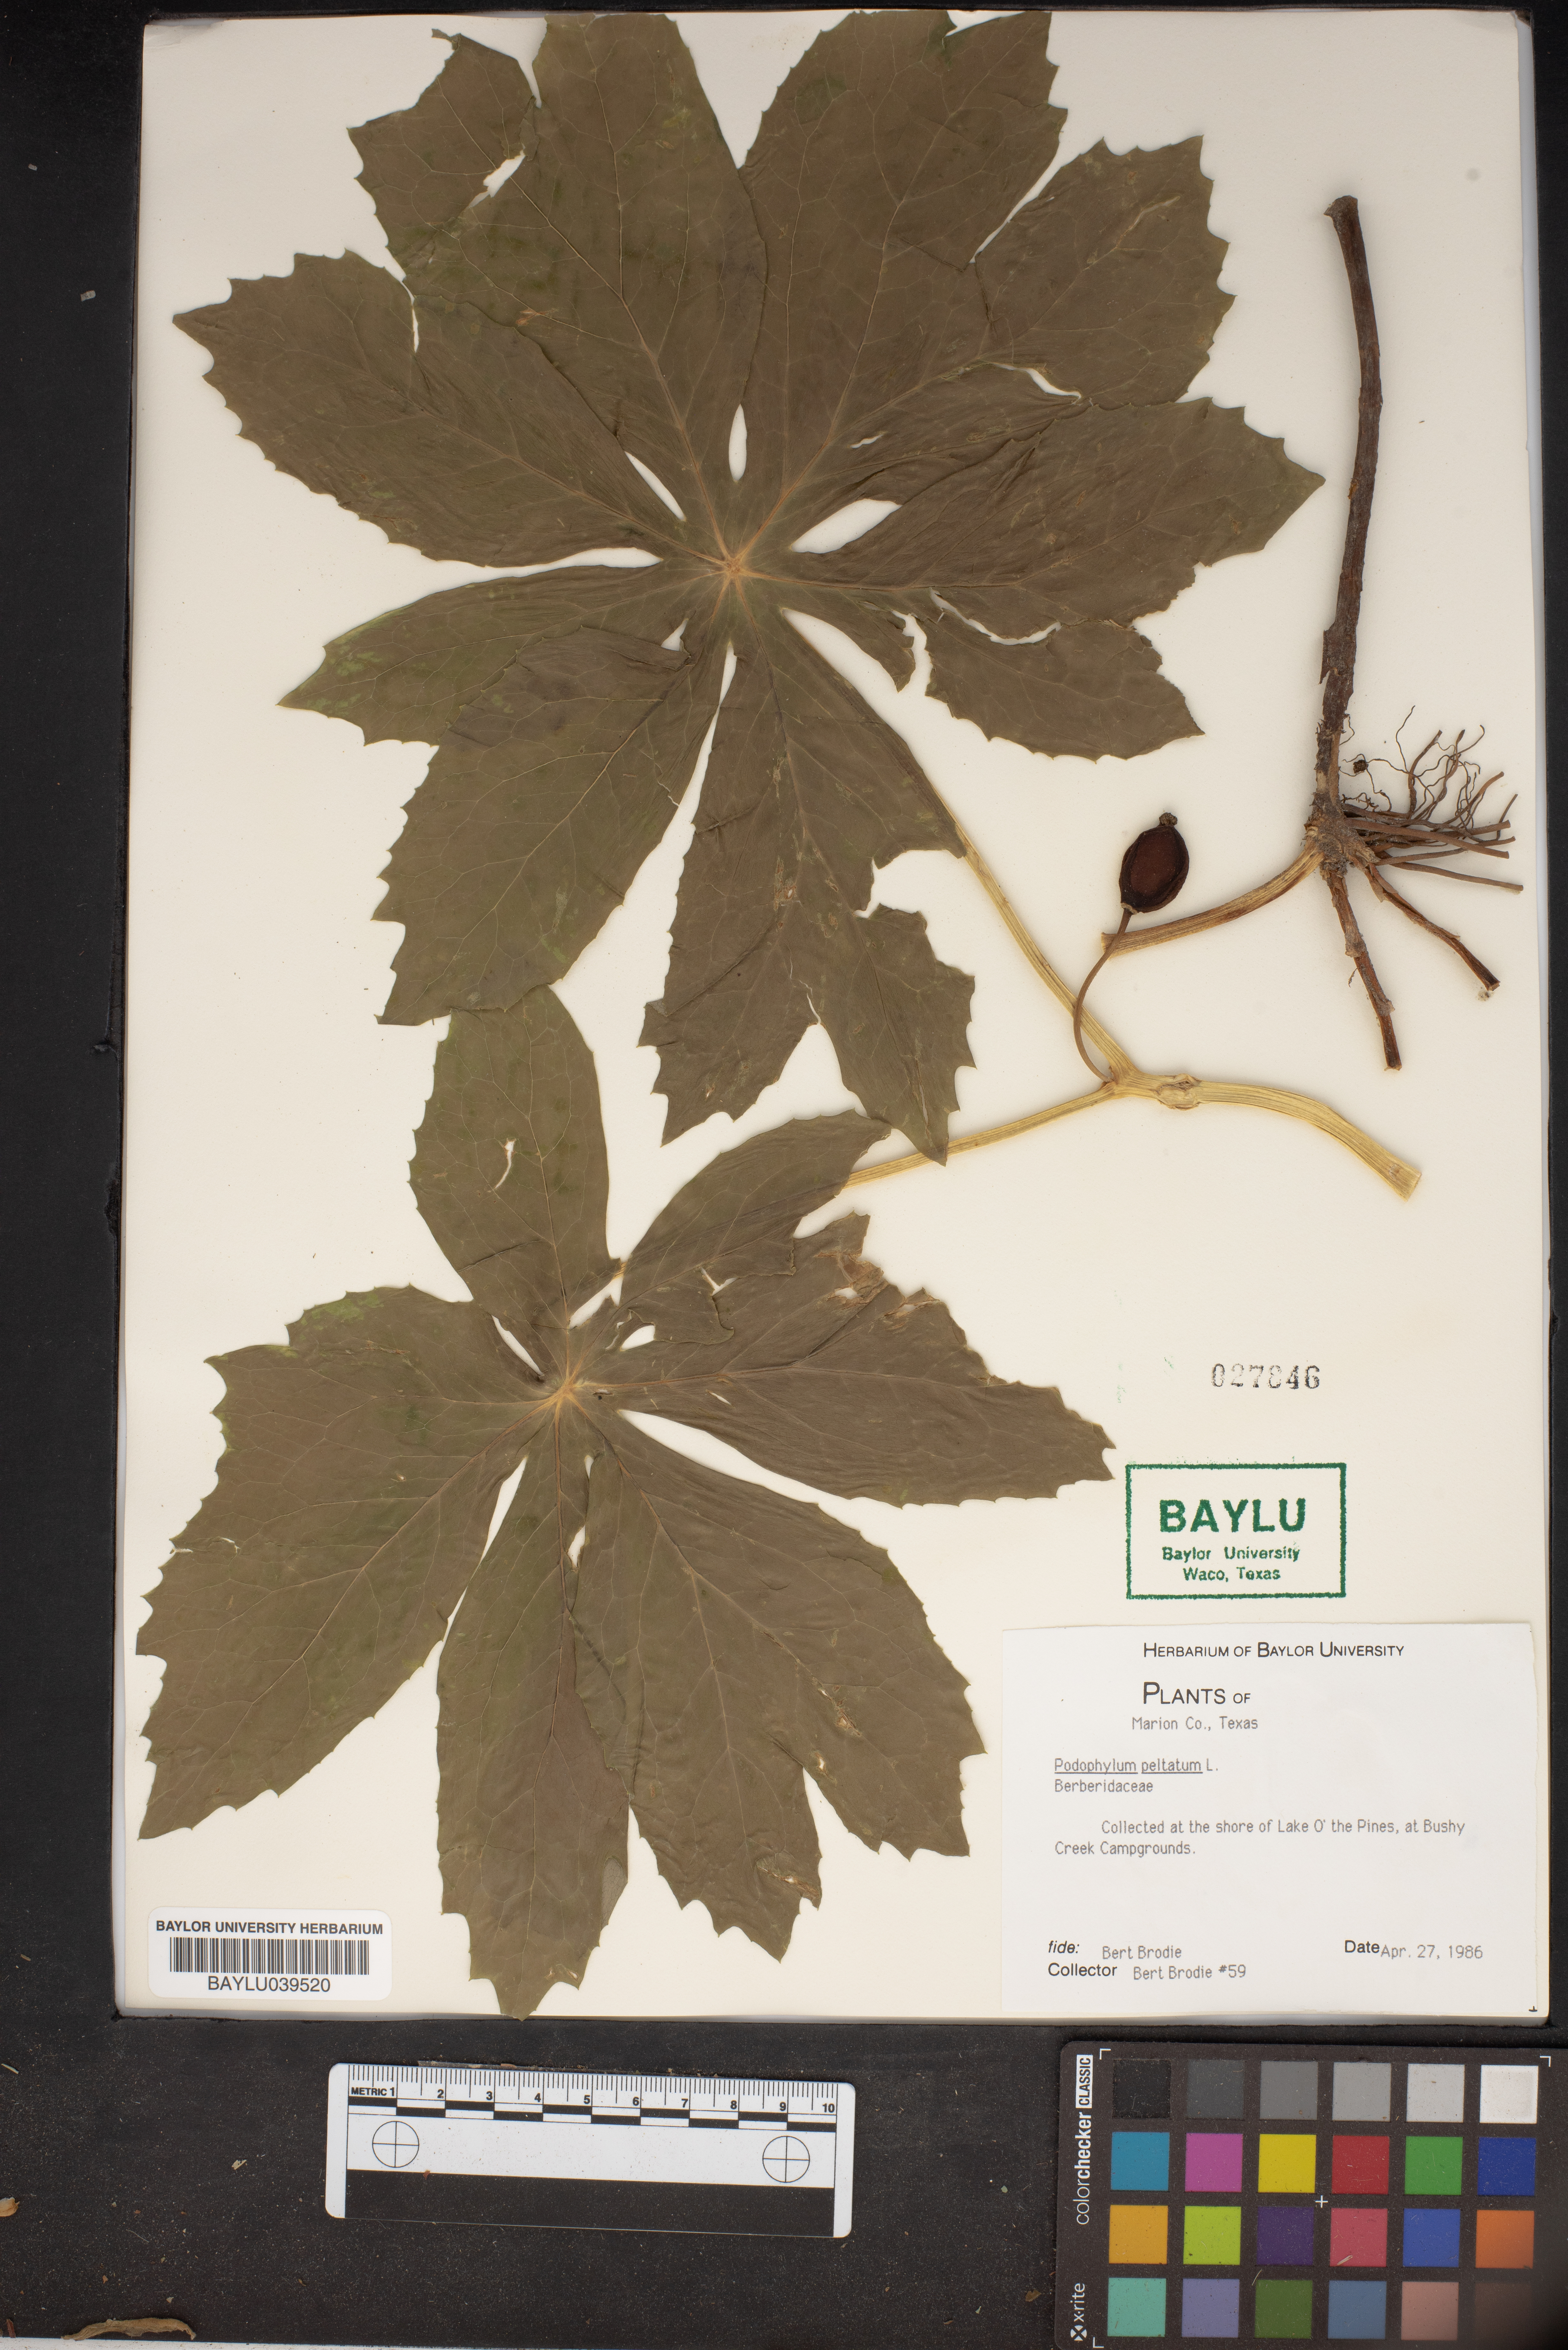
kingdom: Plantae
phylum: Tracheophyta
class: Magnoliopsida
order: Ranunculales
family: Berberidaceae
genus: Podophyllum
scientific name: Podophyllum peltatum
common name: Wild mandrake
